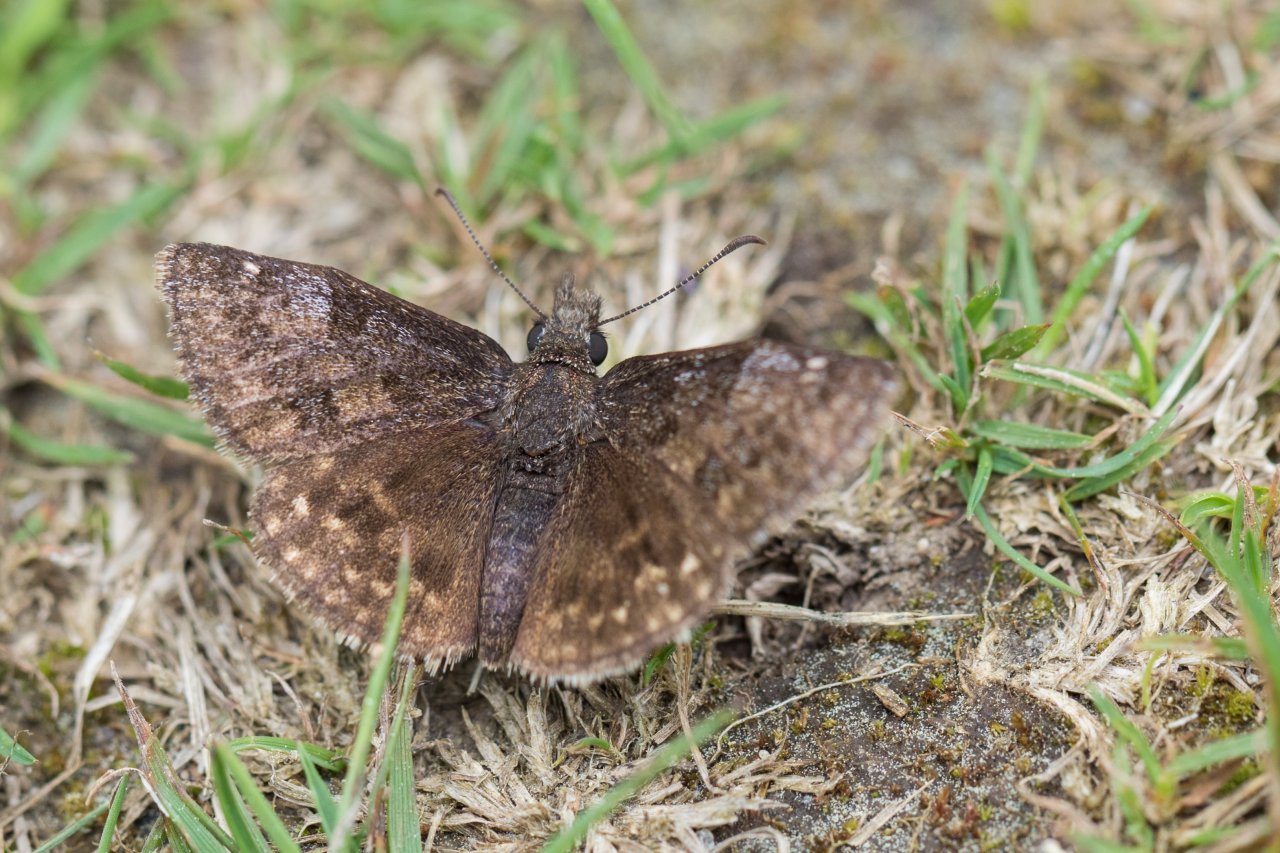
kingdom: Animalia
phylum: Arthropoda
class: Insecta
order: Lepidoptera
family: Hesperiidae
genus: Erynnis
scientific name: Erynnis icelus
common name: Dreamy Duskywing
